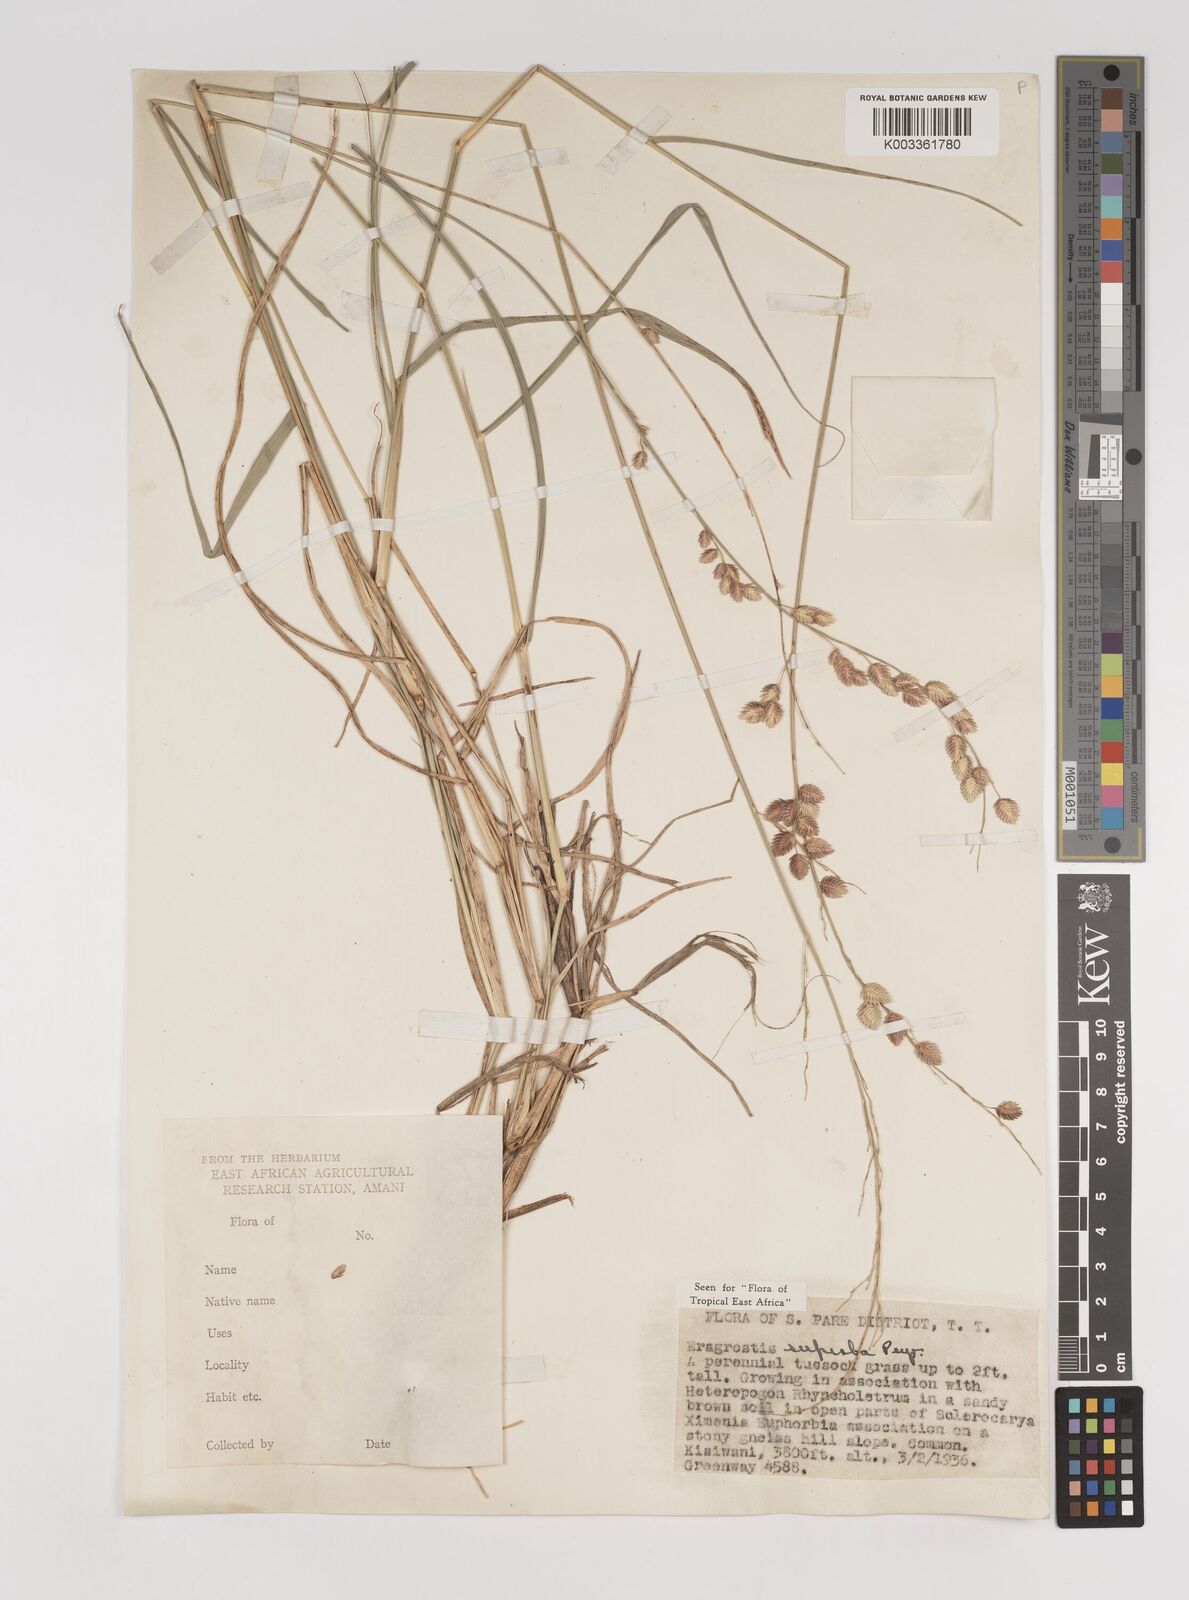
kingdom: Plantae
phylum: Tracheophyta
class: Liliopsida
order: Poales
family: Poaceae
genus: Eragrostis
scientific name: Eragrostis superba
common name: Wilman lovegrass
